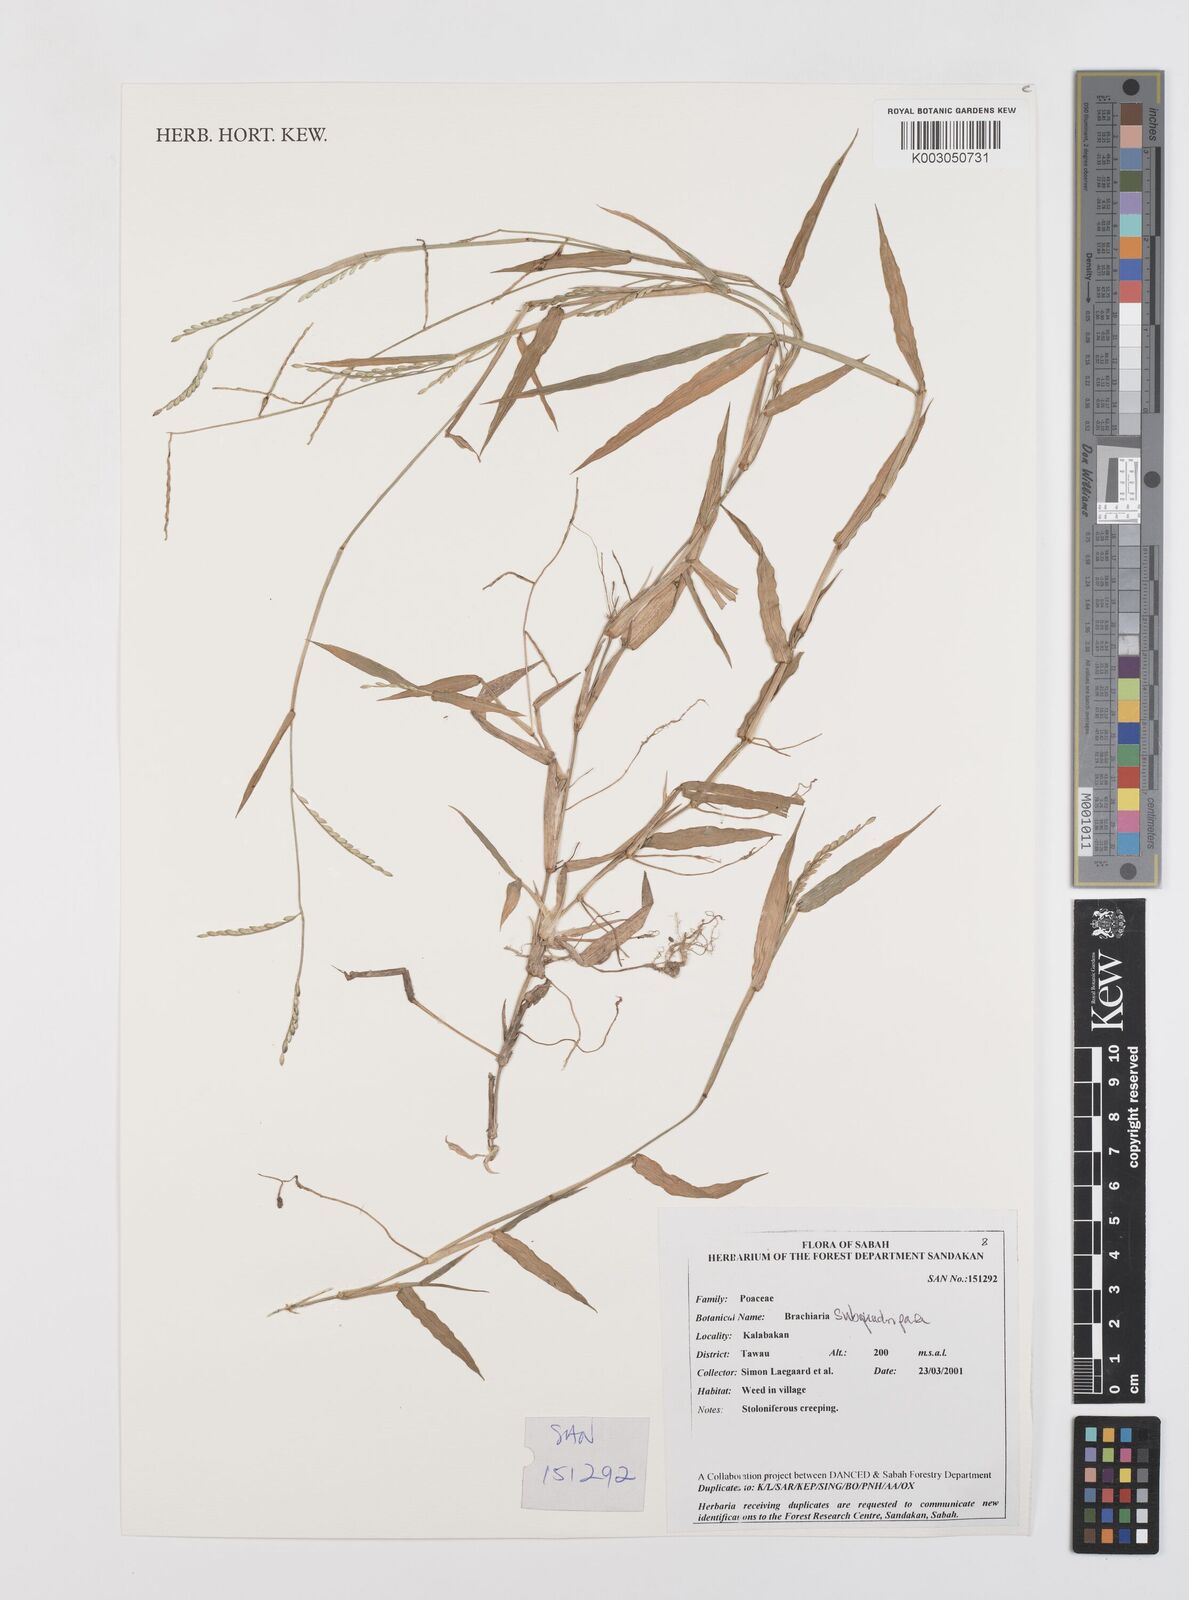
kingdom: Plantae
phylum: Tracheophyta
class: Liliopsida
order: Poales
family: Poaceae
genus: Urochloa
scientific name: Urochloa subquadripara
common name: Armgrass millet
